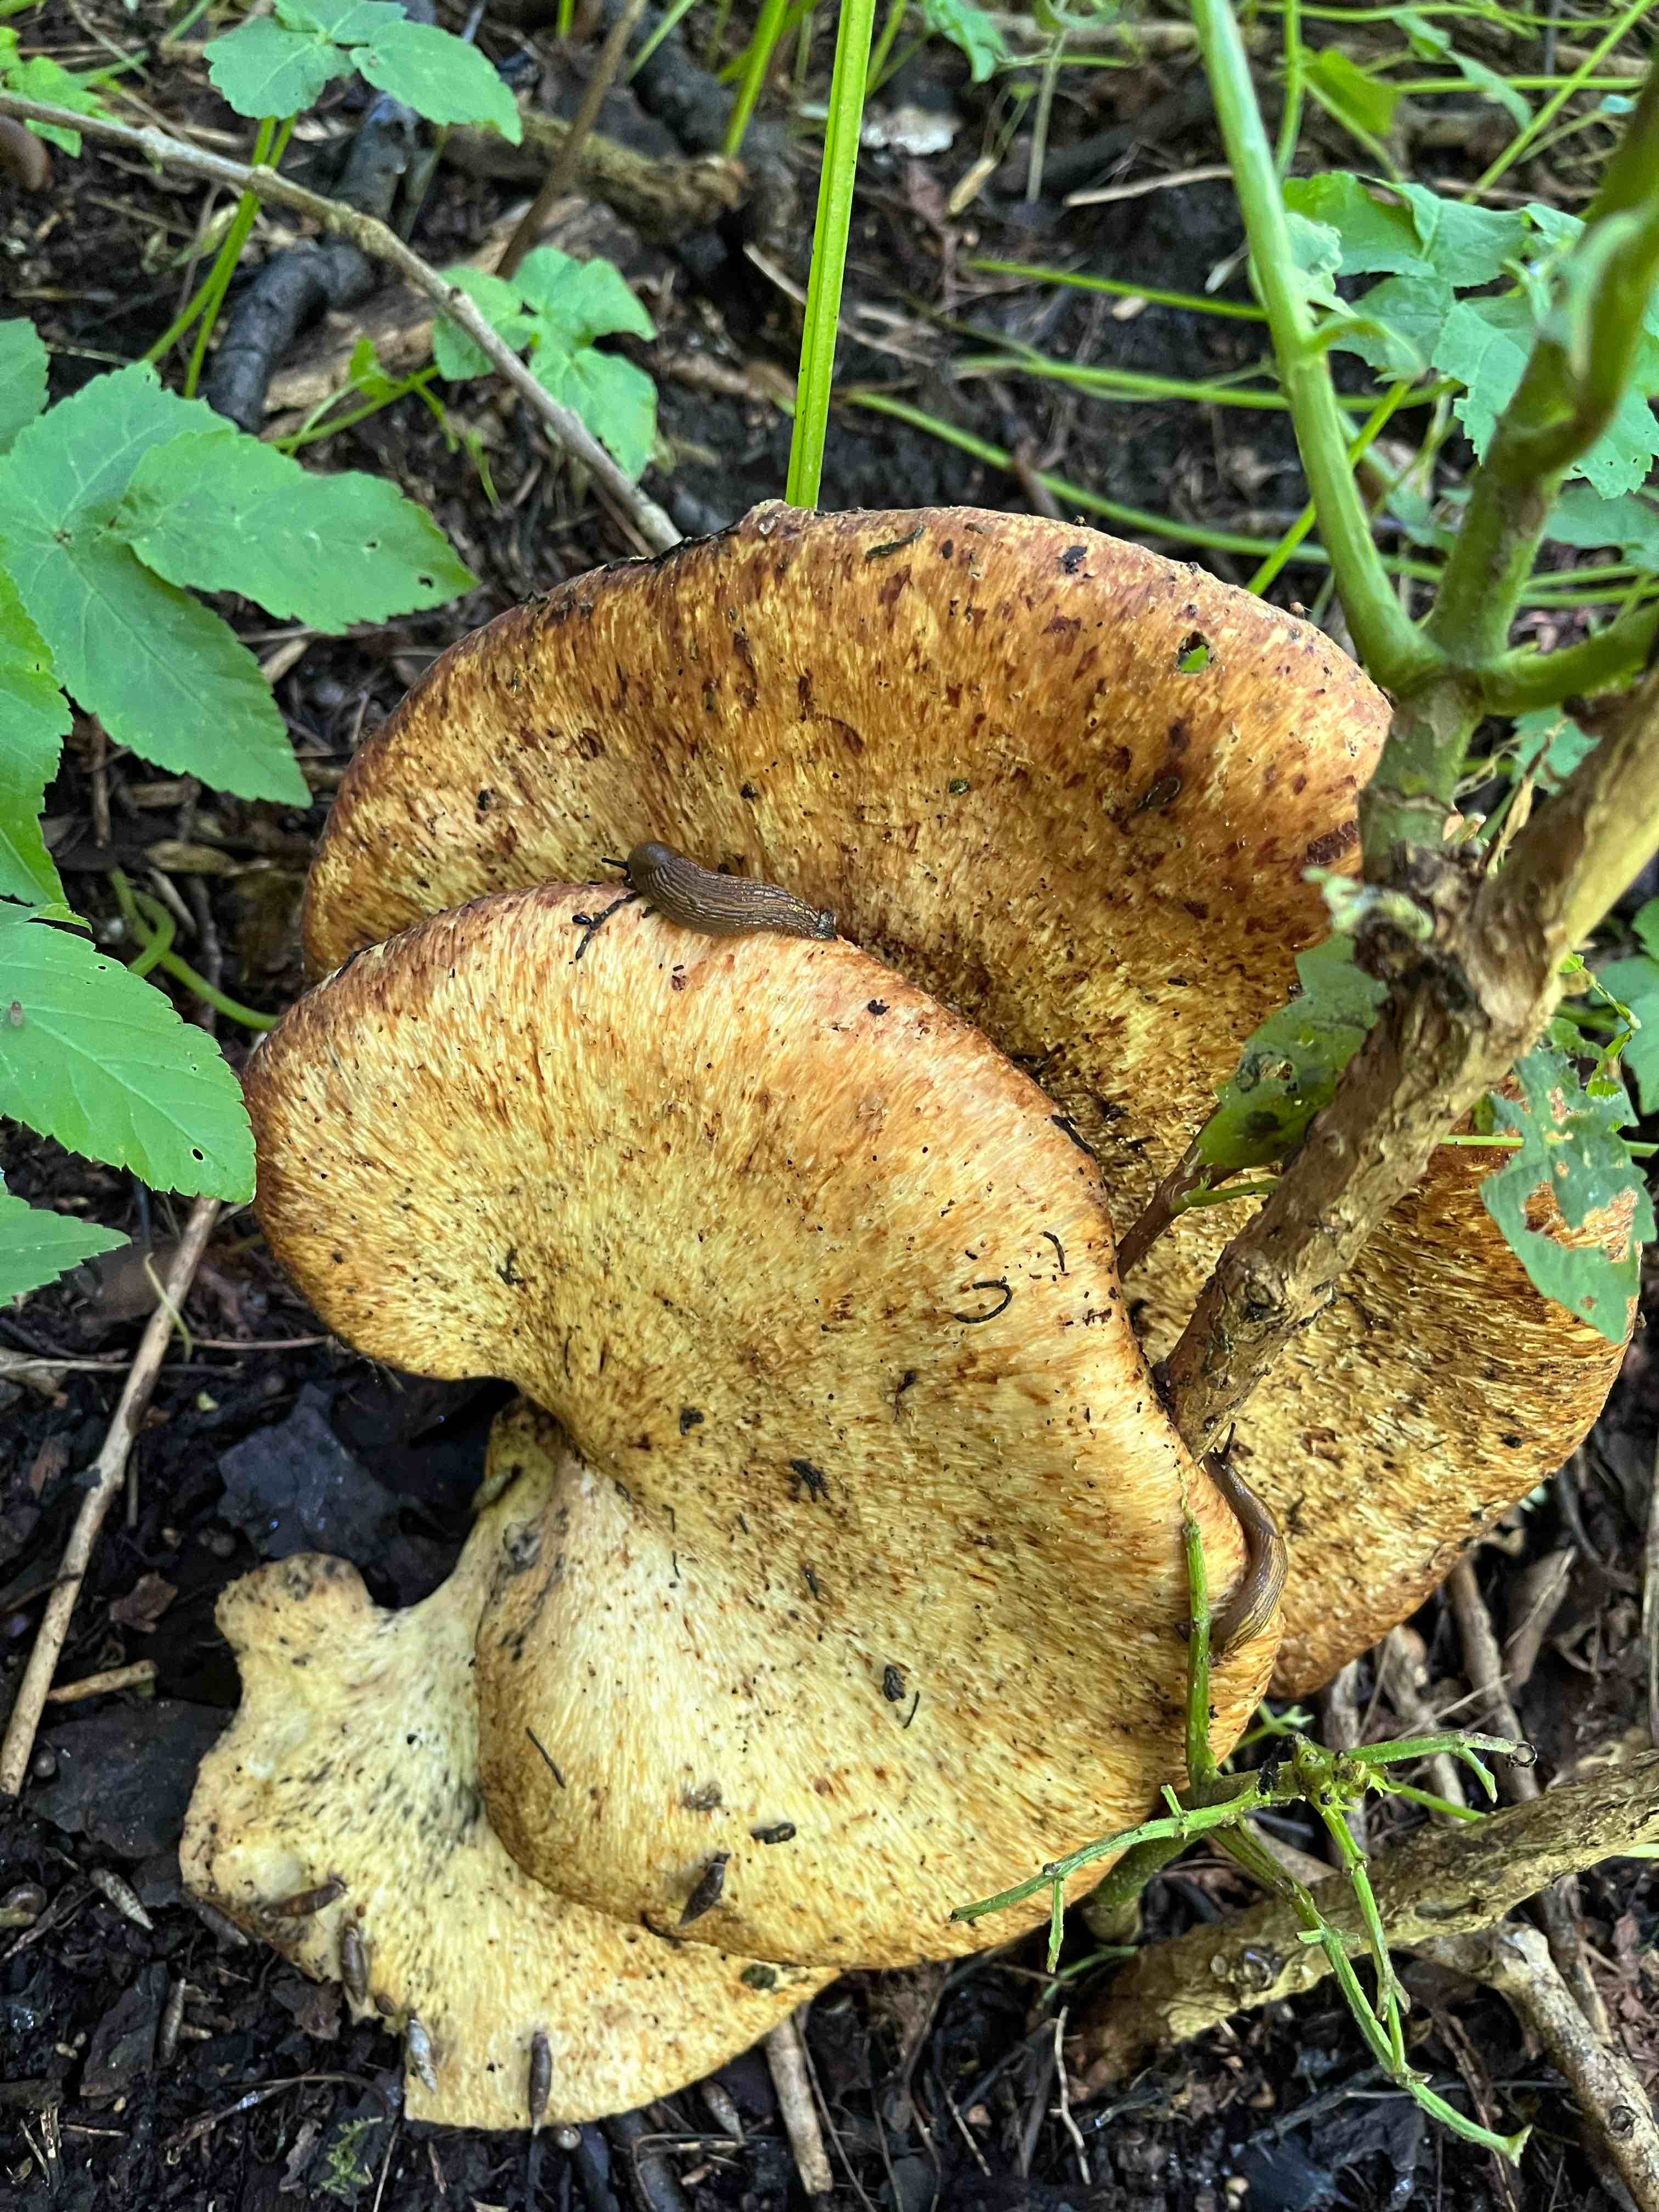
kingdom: Fungi
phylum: Basidiomycota
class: Agaricomycetes
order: Polyporales
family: Polyporaceae
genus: Cerioporus
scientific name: Cerioporus squamosus
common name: skællet stilkporesvamp
